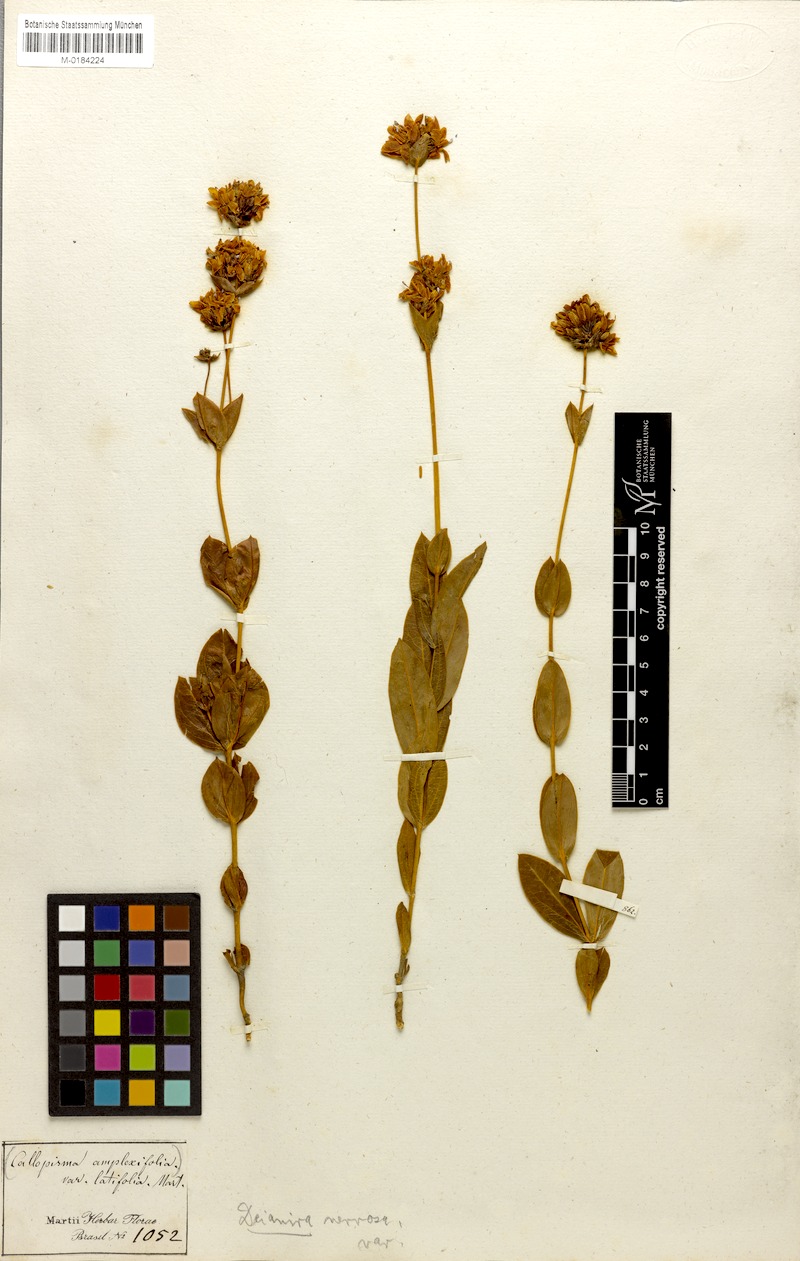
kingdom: Plantae
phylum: Tracheophyta
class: Magnoliopsida
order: Gentianales
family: Gentianaceae
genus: Deianira
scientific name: Deianira nervosa
